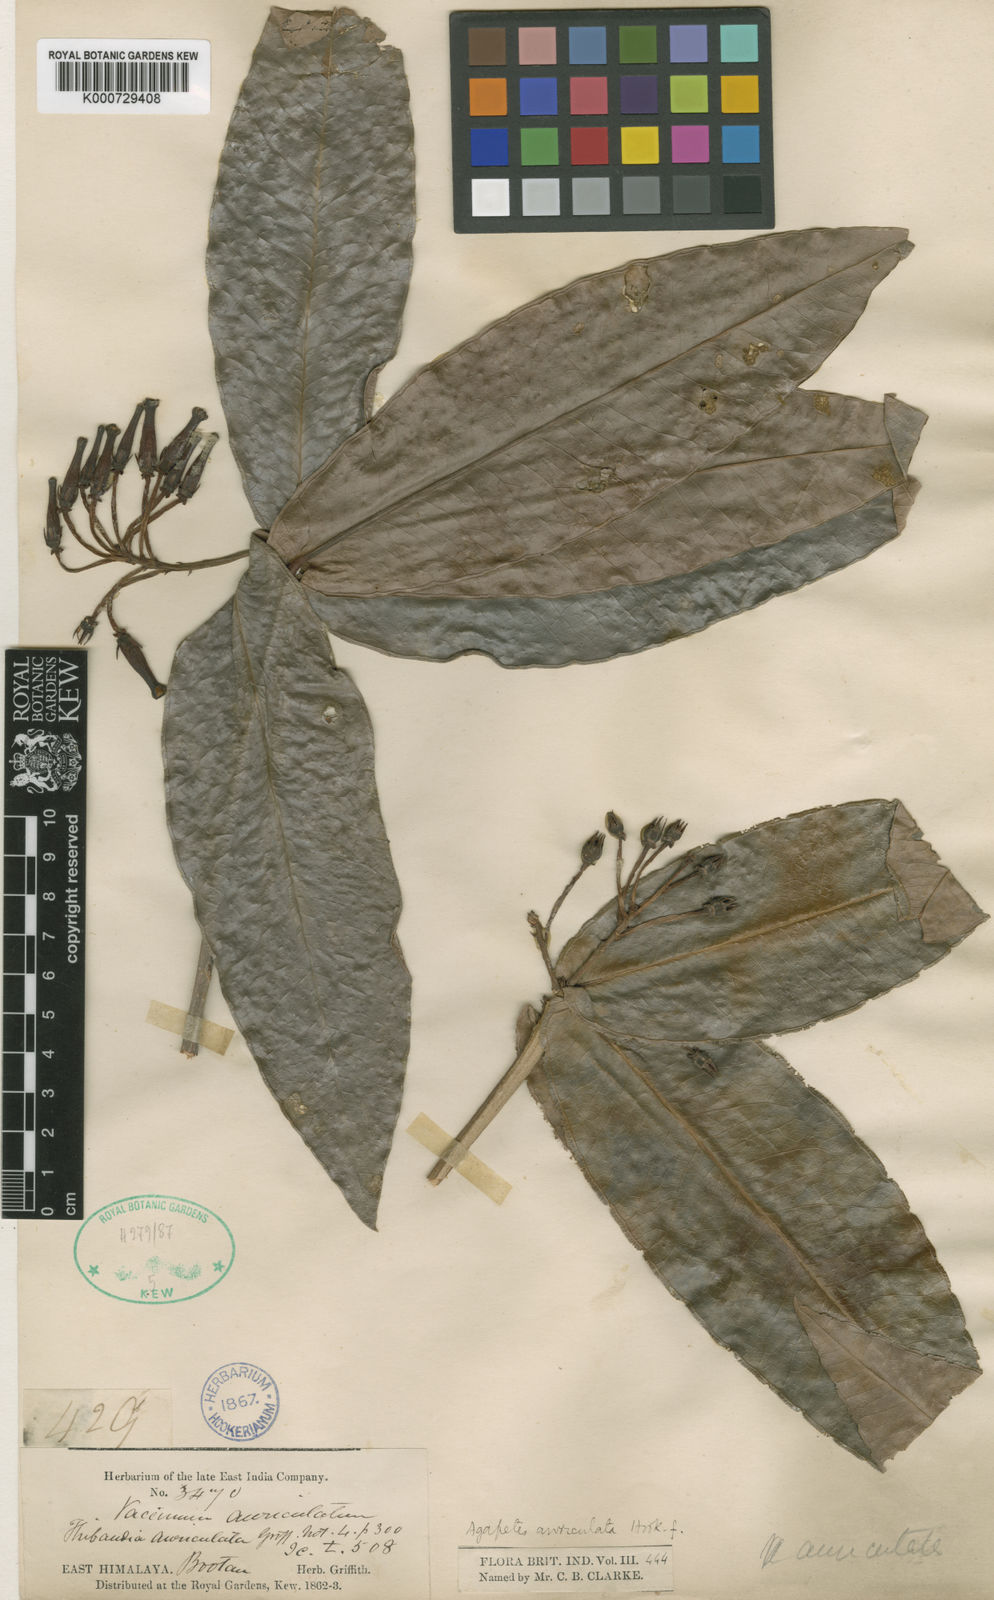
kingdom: Plantae
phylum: Tracheophyta
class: Magnoliopsida
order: Ericales
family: Ericaceae
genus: Agapetes
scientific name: Agapetes auriculata
